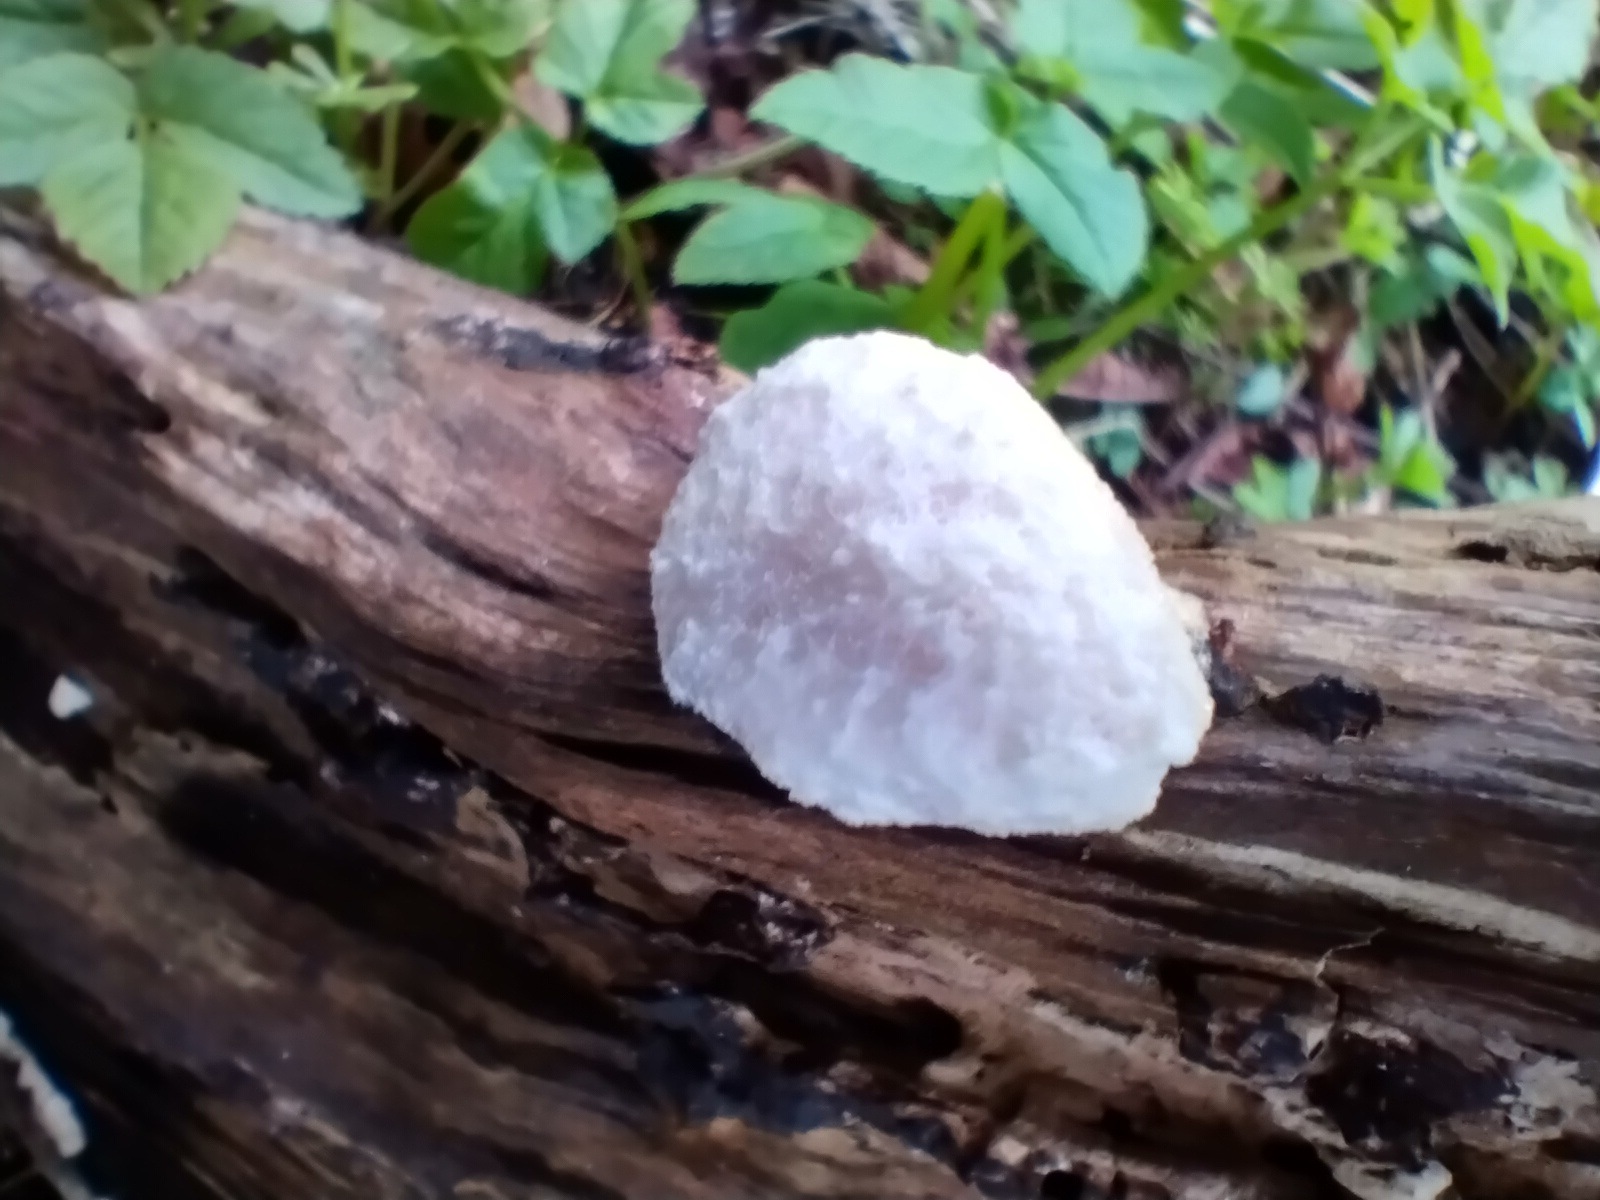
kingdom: Protozoa
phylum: Mycetozoa
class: Myxomycetes
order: Cribrariales
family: Tubiferaceae
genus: Reticularia
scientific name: Reticularia lycoperdon
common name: skinnende støvpude
